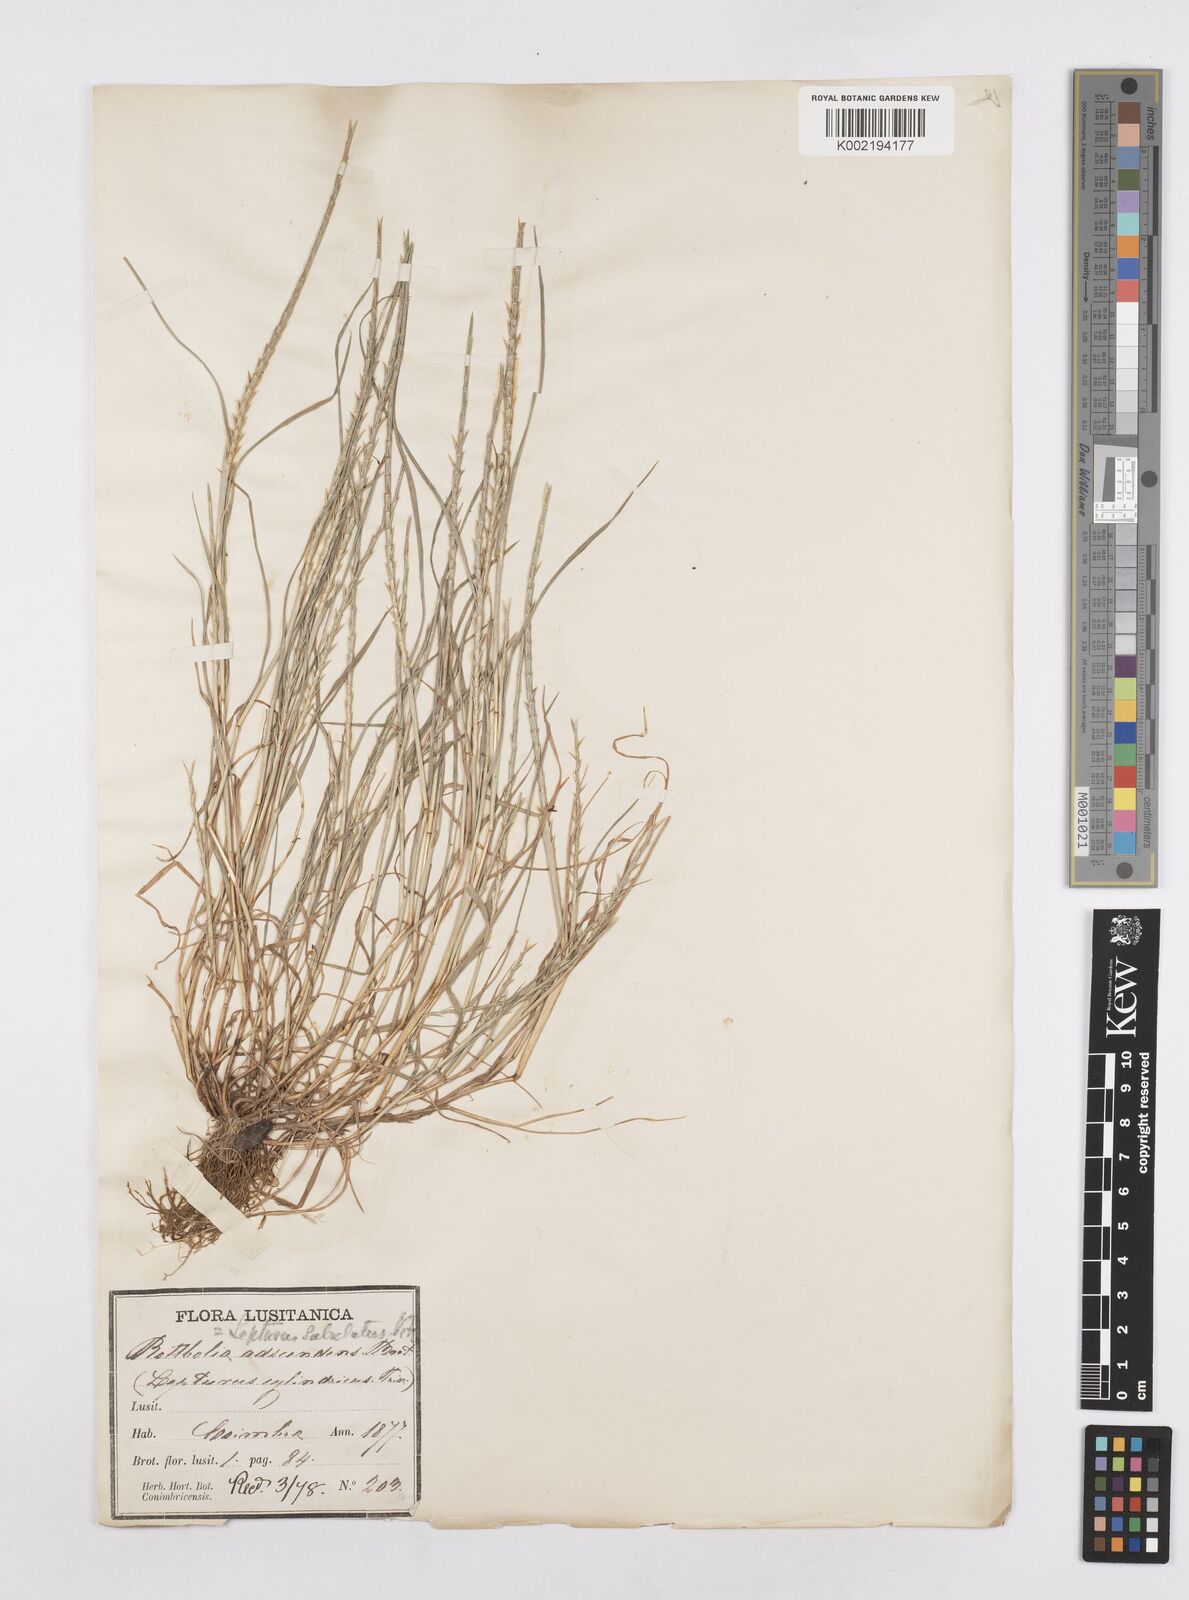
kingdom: Plantae
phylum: Tracheophyta
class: Liliopsida
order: Poales
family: Poaceae
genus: Parapholis
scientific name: Parapholis cylindrica
